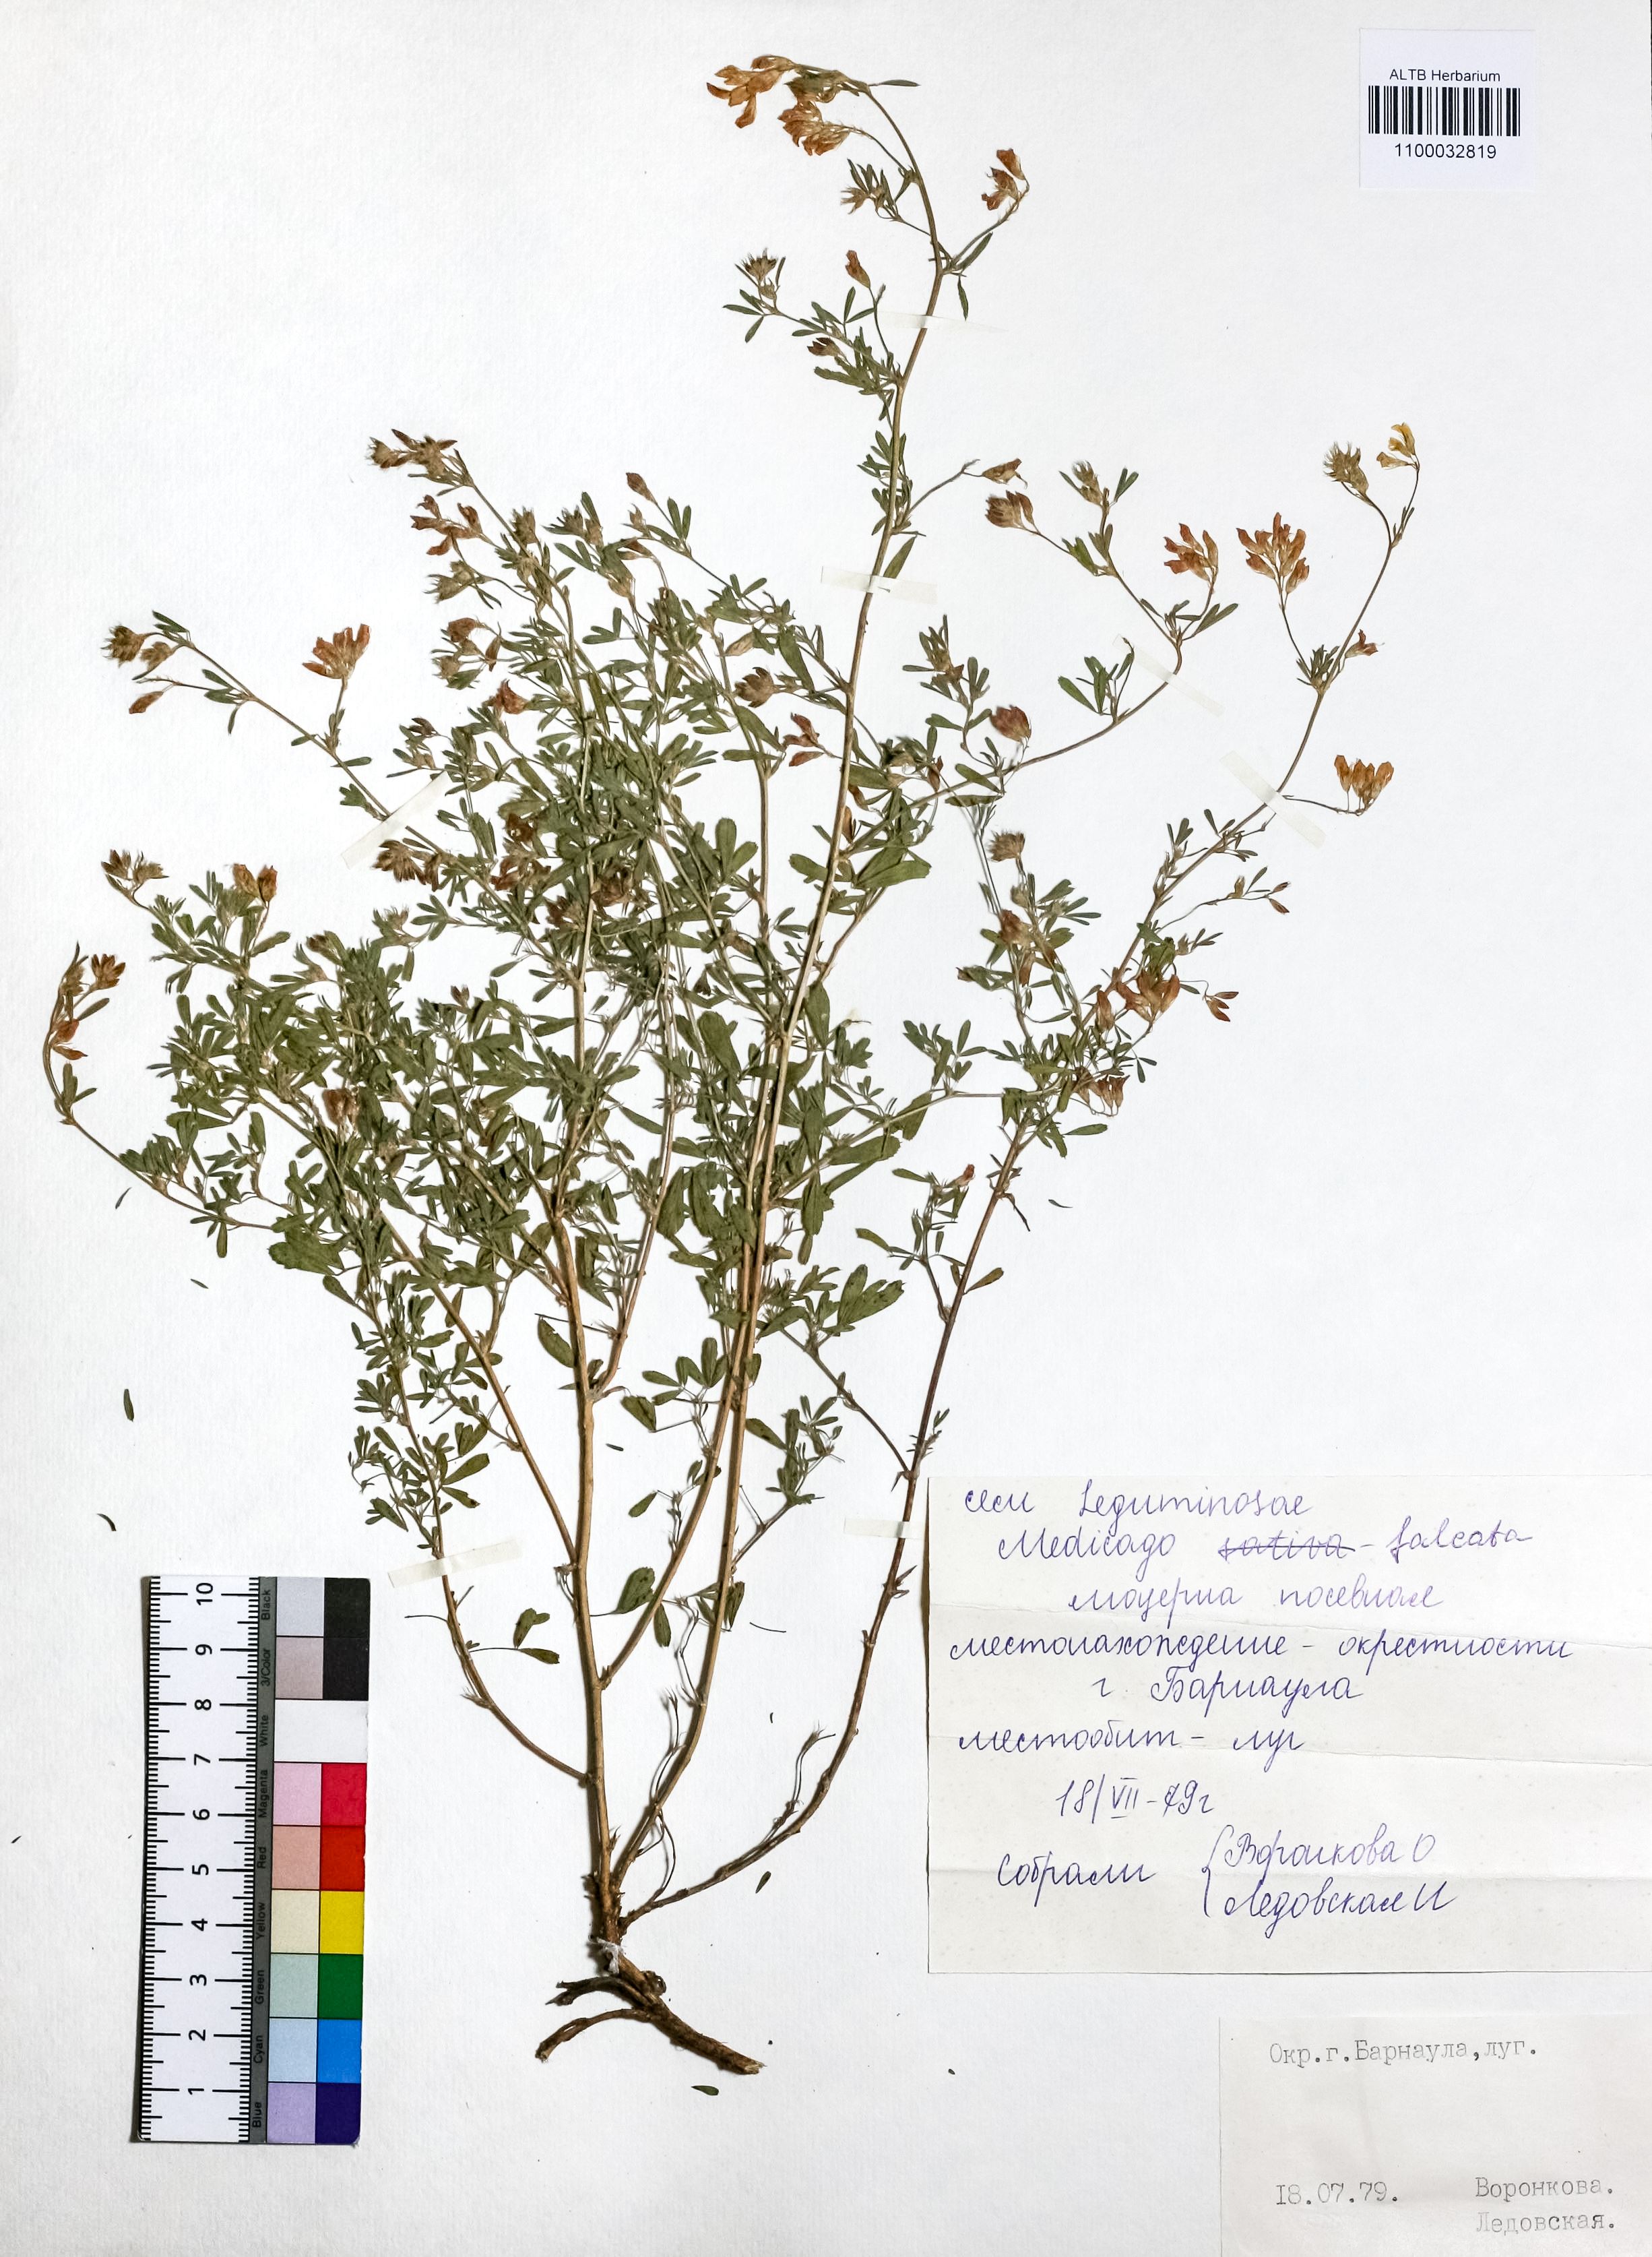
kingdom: Plantae
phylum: Tracheophyta
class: Magnoliopsida
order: Fabales
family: Fabaceae
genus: Medicago
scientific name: Medicago falcata
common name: Sickle medick
